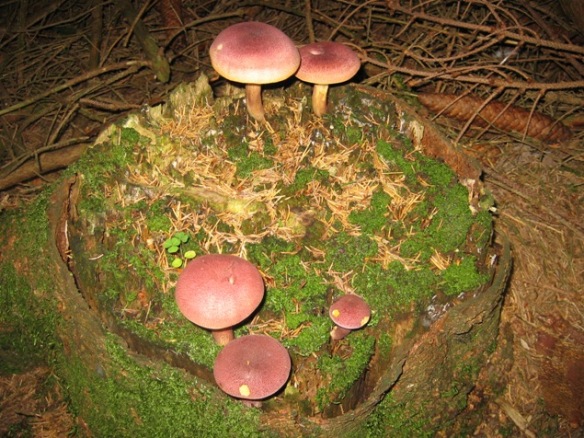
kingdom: Fungi
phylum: Basidiomycota
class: Agaricomycetes
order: Agaricales
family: Tricholomataceae
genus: Tricholomopsis
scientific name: Tricholomopsis rutilans
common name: purpur-væbnerhat
